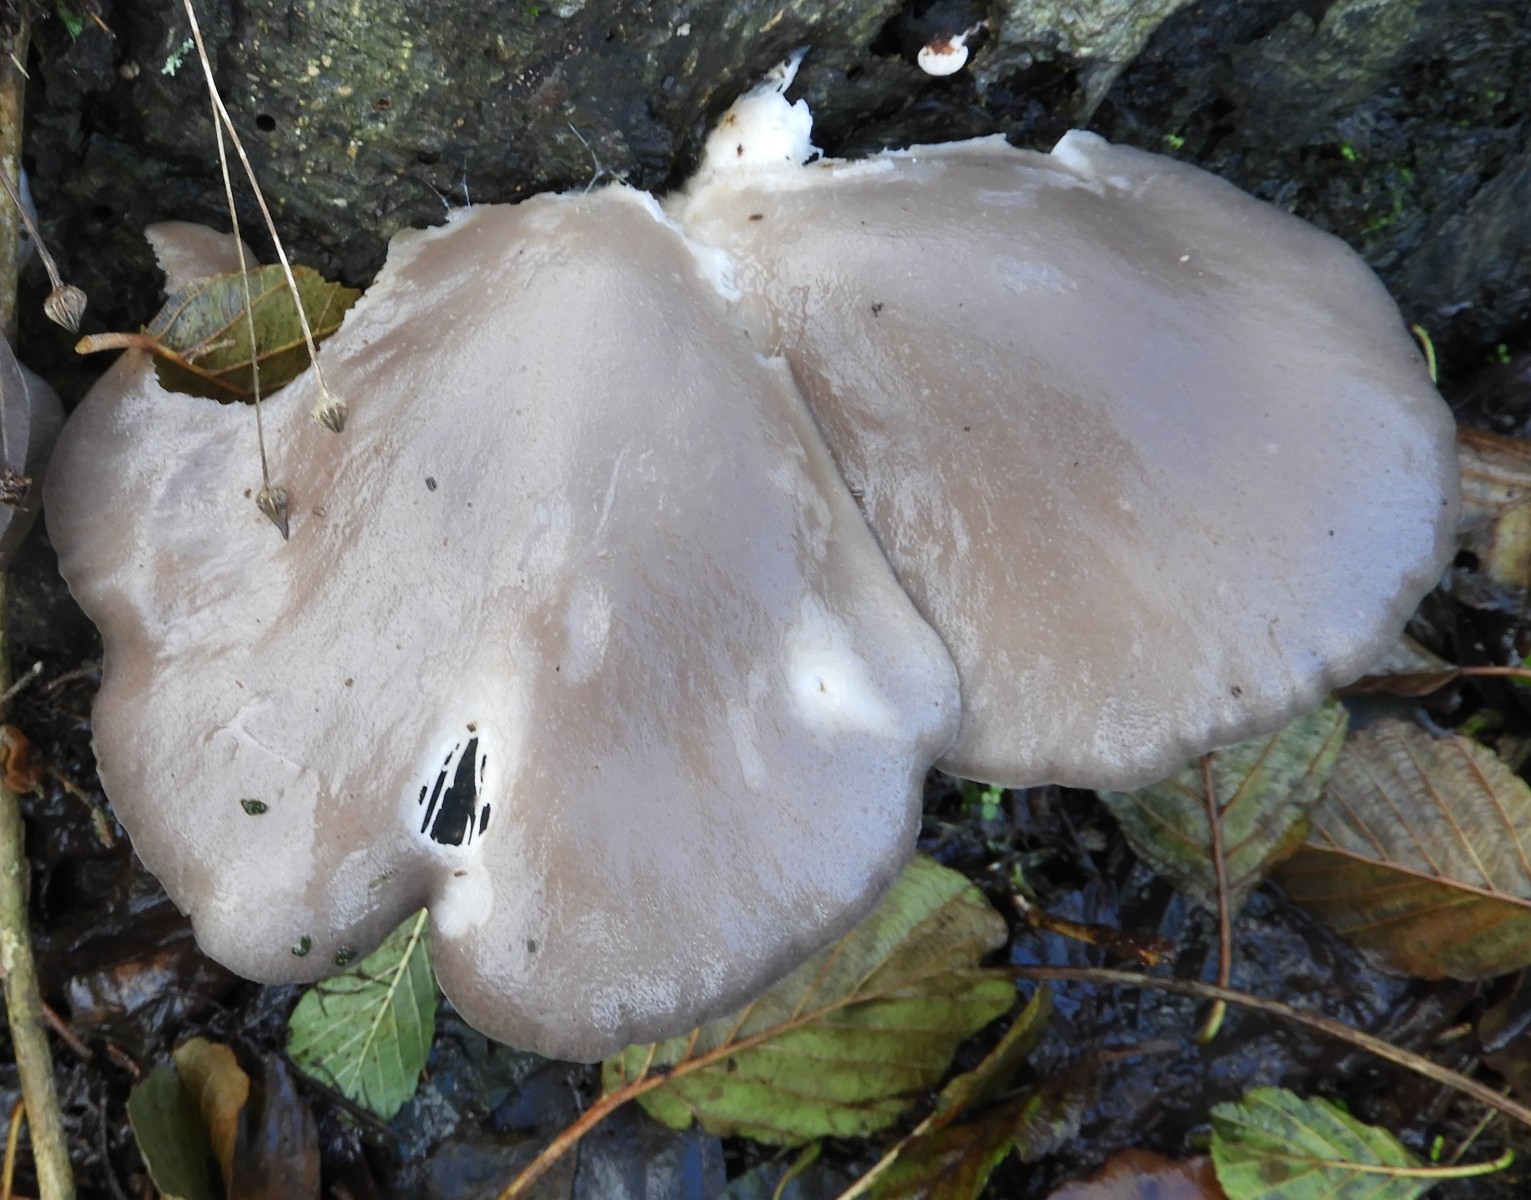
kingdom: Fungi
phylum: Basidiomycota
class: Agaricomycetes
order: Agaricales
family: Pleurotaceae
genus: Pleurotus
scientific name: Pleurotus ostreatus
